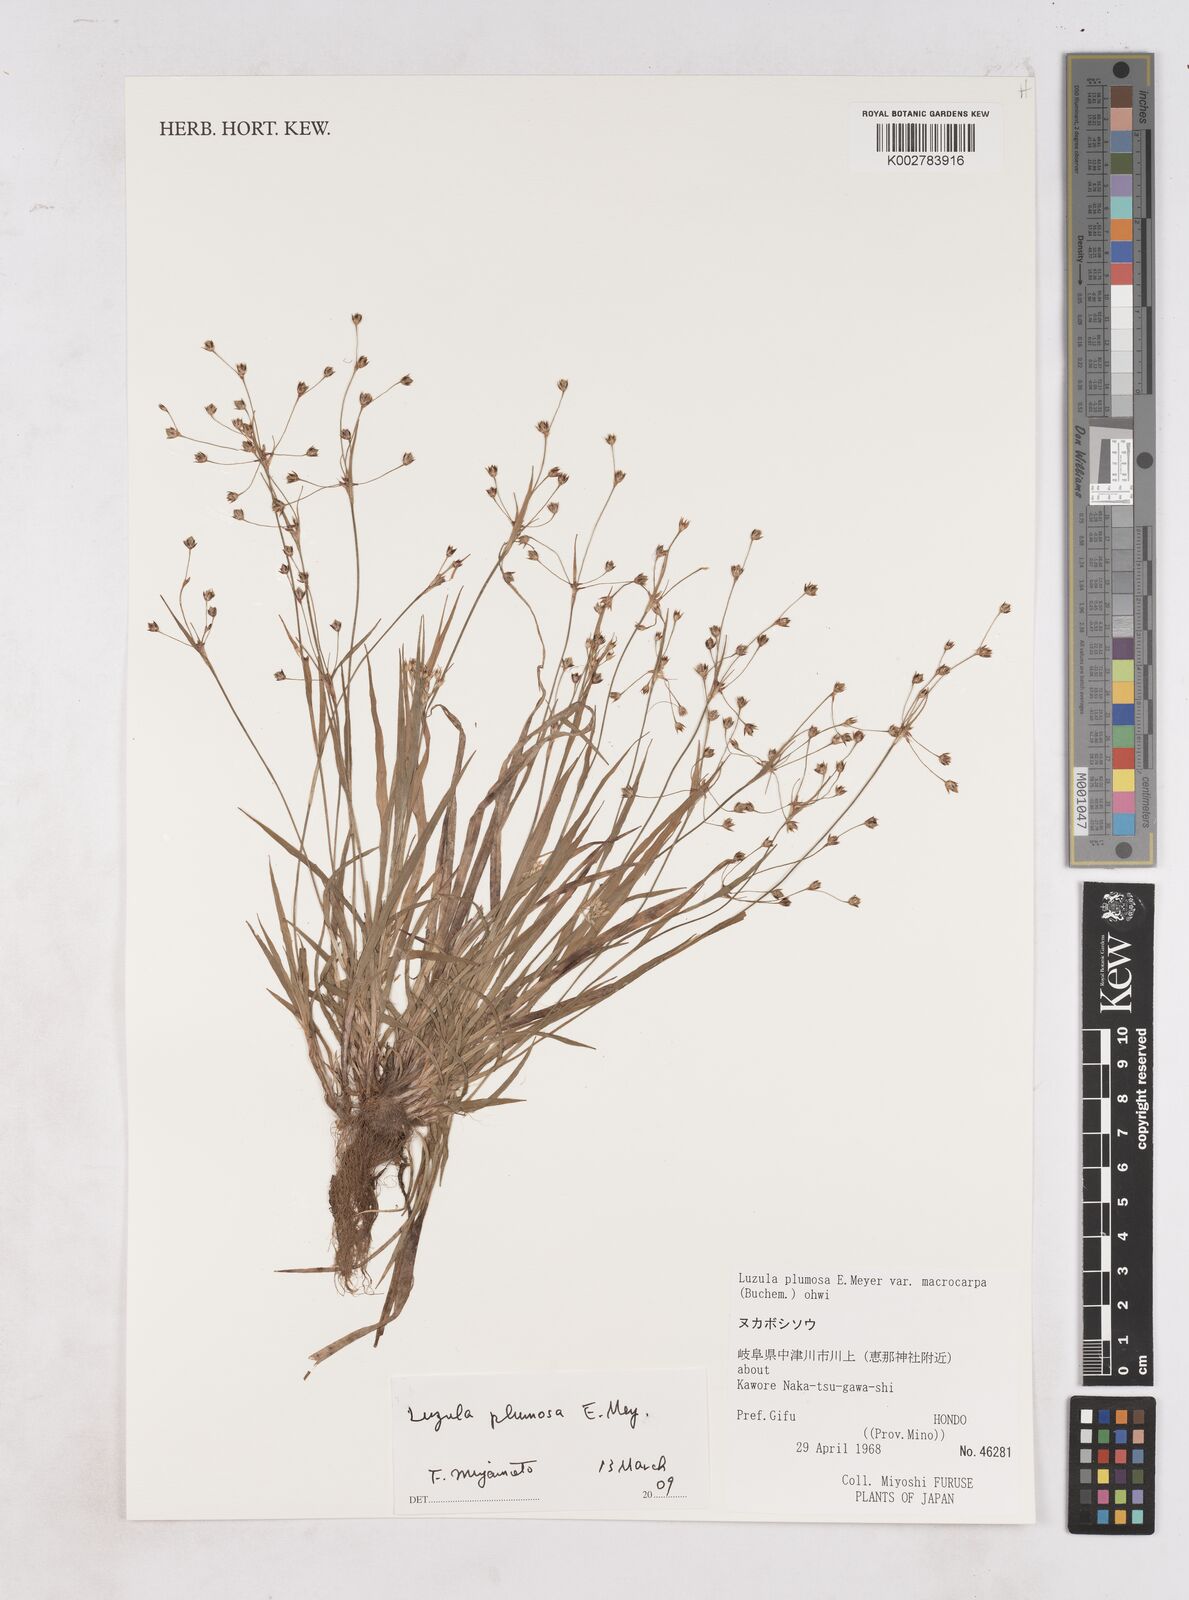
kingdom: Plantae
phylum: Tracheophyta
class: Liliopsida
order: Poales
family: Juncaceae
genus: Luzula
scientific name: Luzula plumosa
